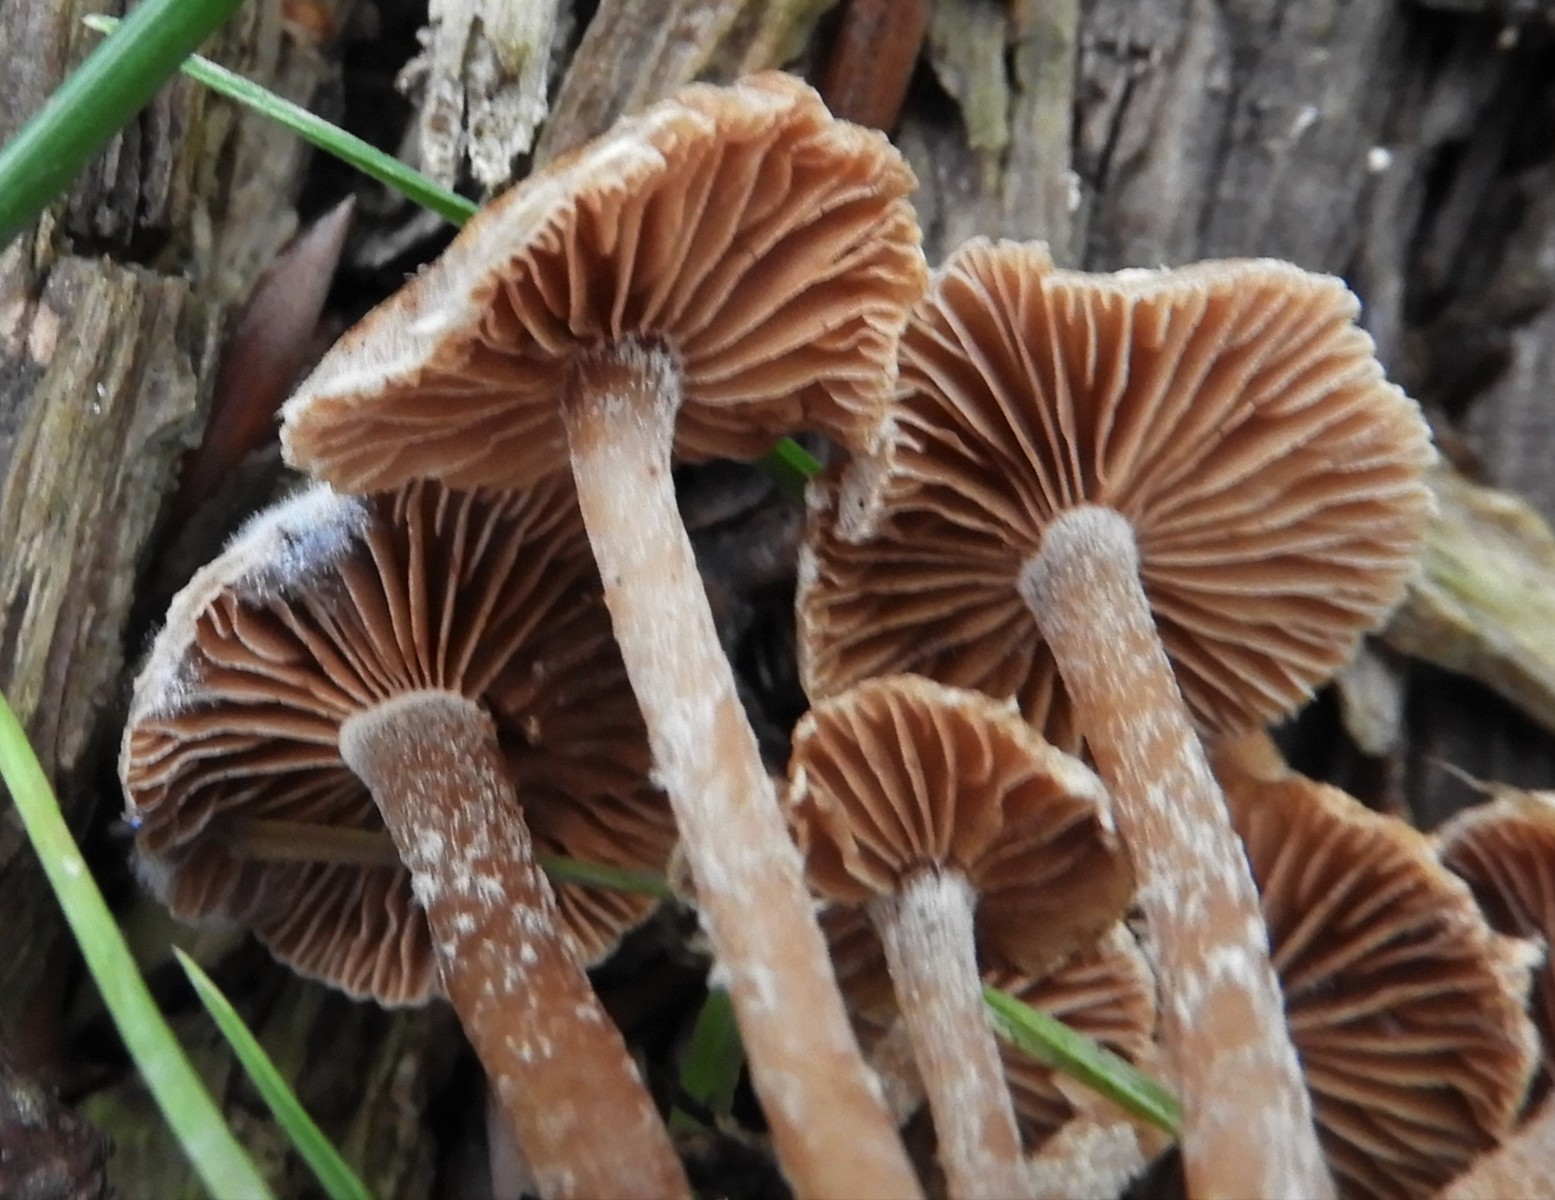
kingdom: Fungi
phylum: Basidiomycota
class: Agaricomycetes
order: Agaricales
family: Tubariaceae
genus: Tubaria
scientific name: Tubaria conspersa
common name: bleg fnughat
